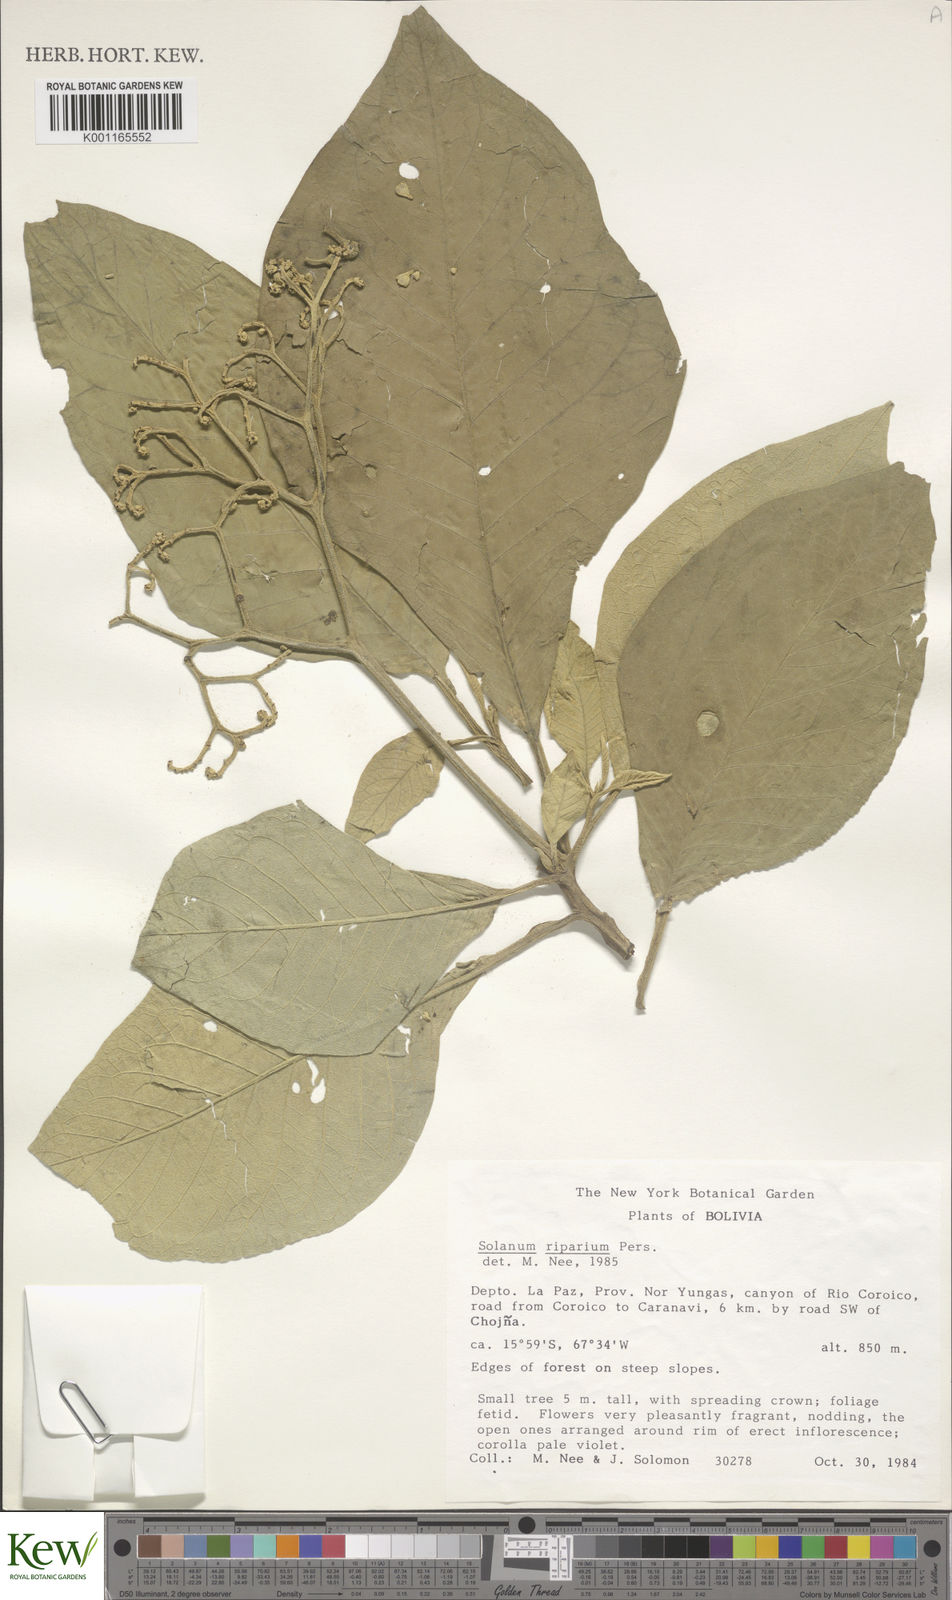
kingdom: Plantae
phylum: Tracheophyta
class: Magnoliopsida
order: Solanales
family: Solanaceae
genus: Solanum
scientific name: Solanum riparium
